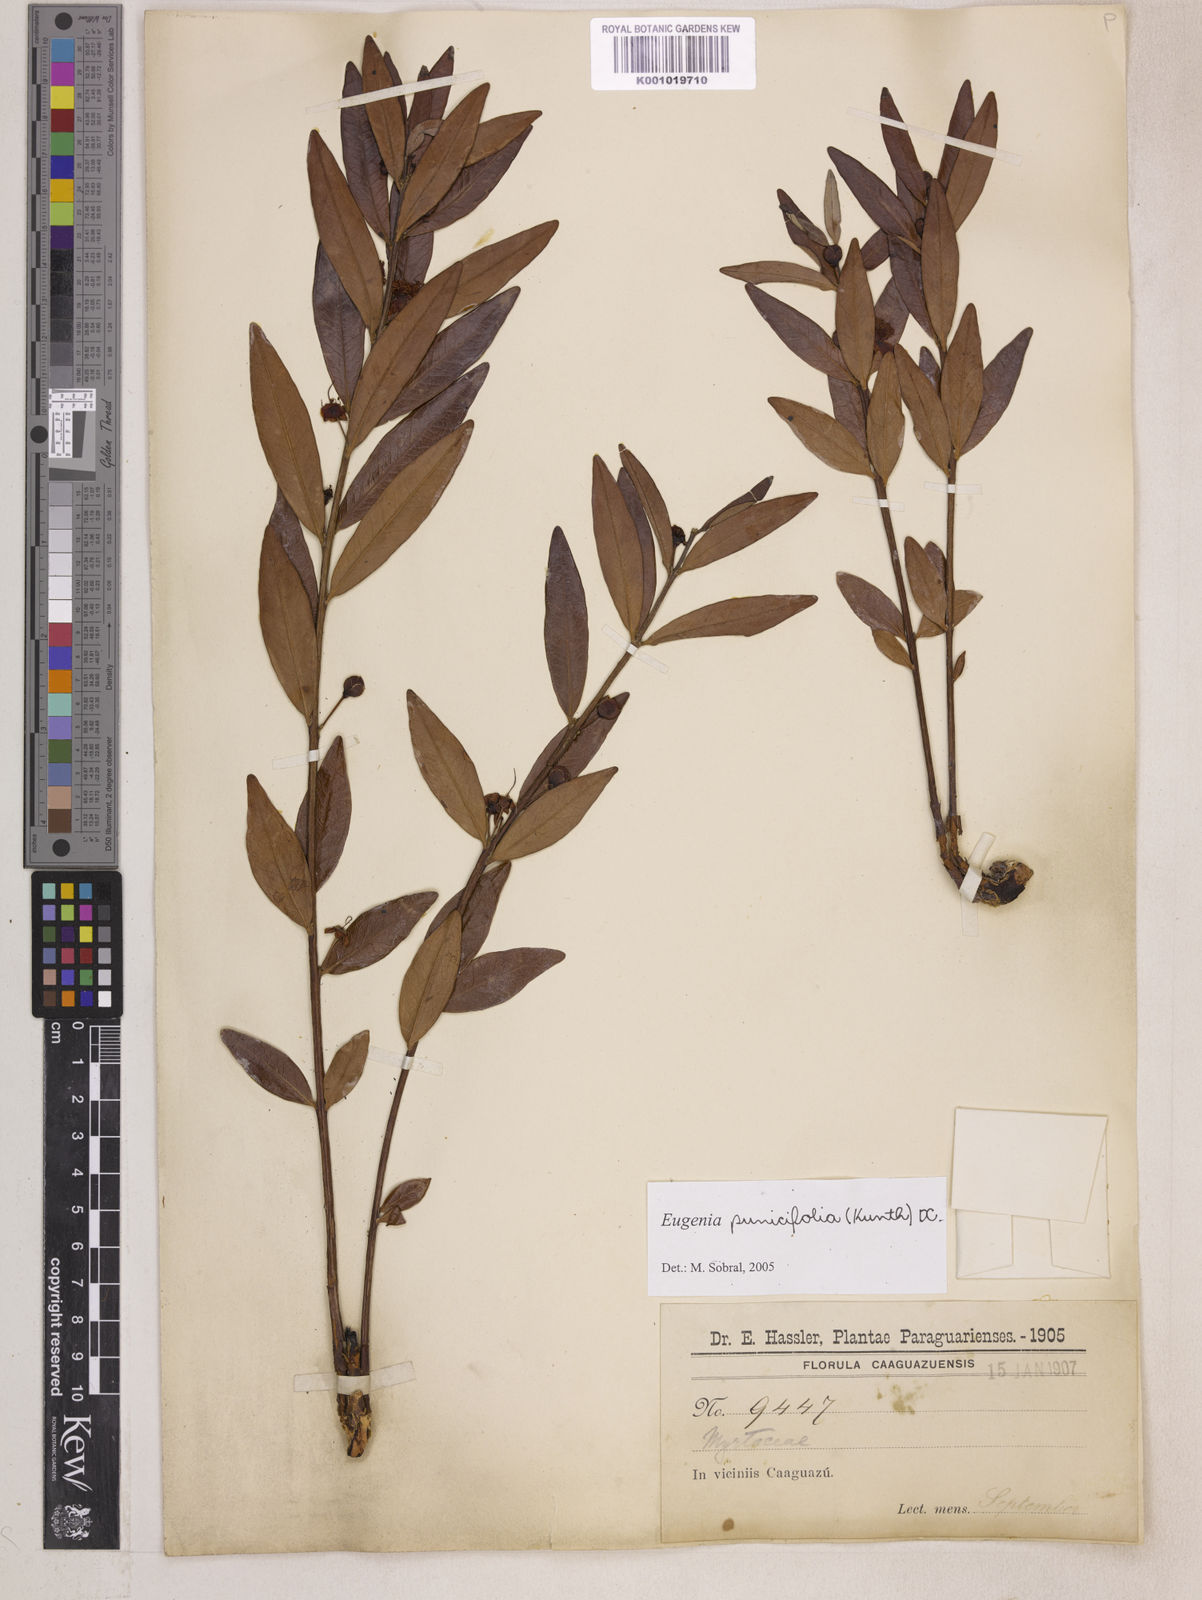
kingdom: Plantae
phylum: Tracheophyta
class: Magnoliopsida
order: Myrtales
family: Myrtaceae
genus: Eugenia
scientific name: Eugenia punicifolia
